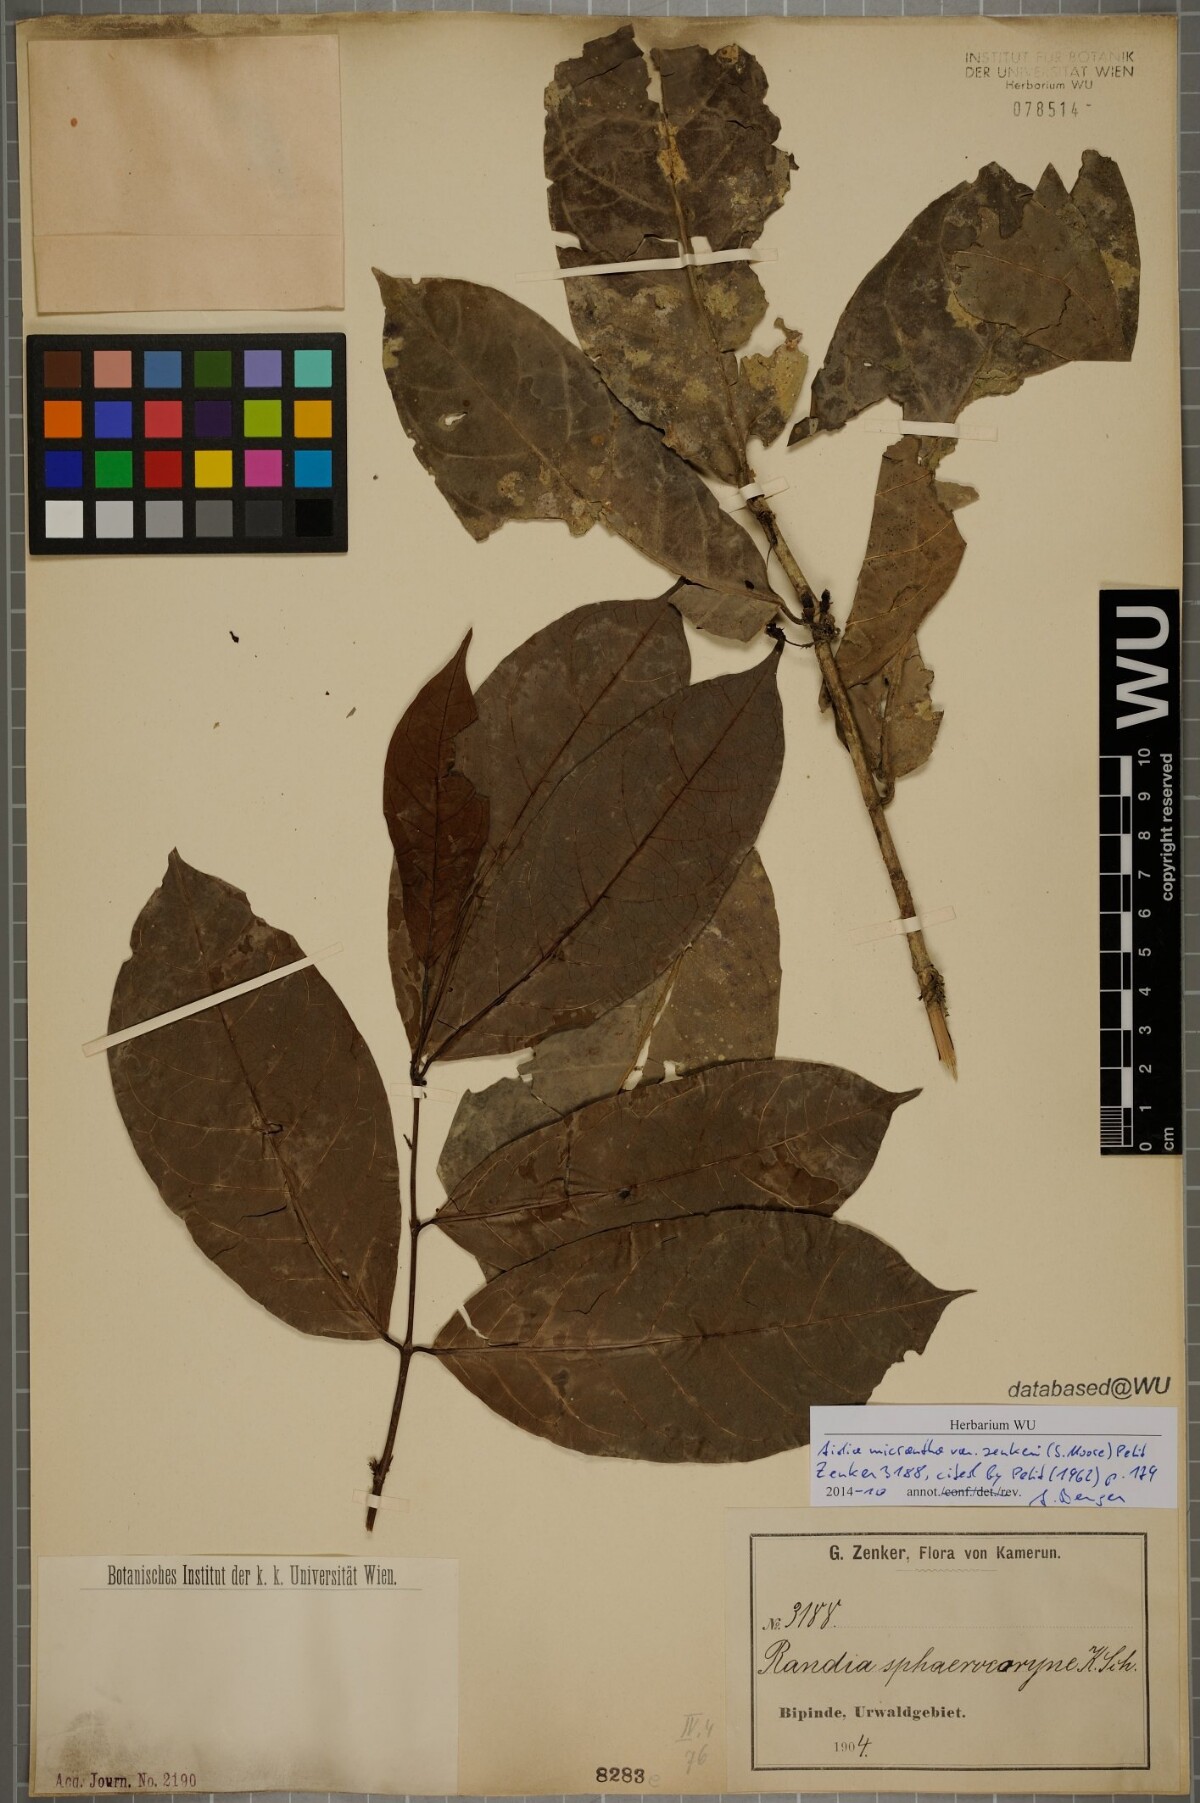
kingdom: Plantae
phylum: Tracheophyta
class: Magnoliopsida
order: Gentianales
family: Rubiaceae
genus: Aidia
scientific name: Aidia micrantha
